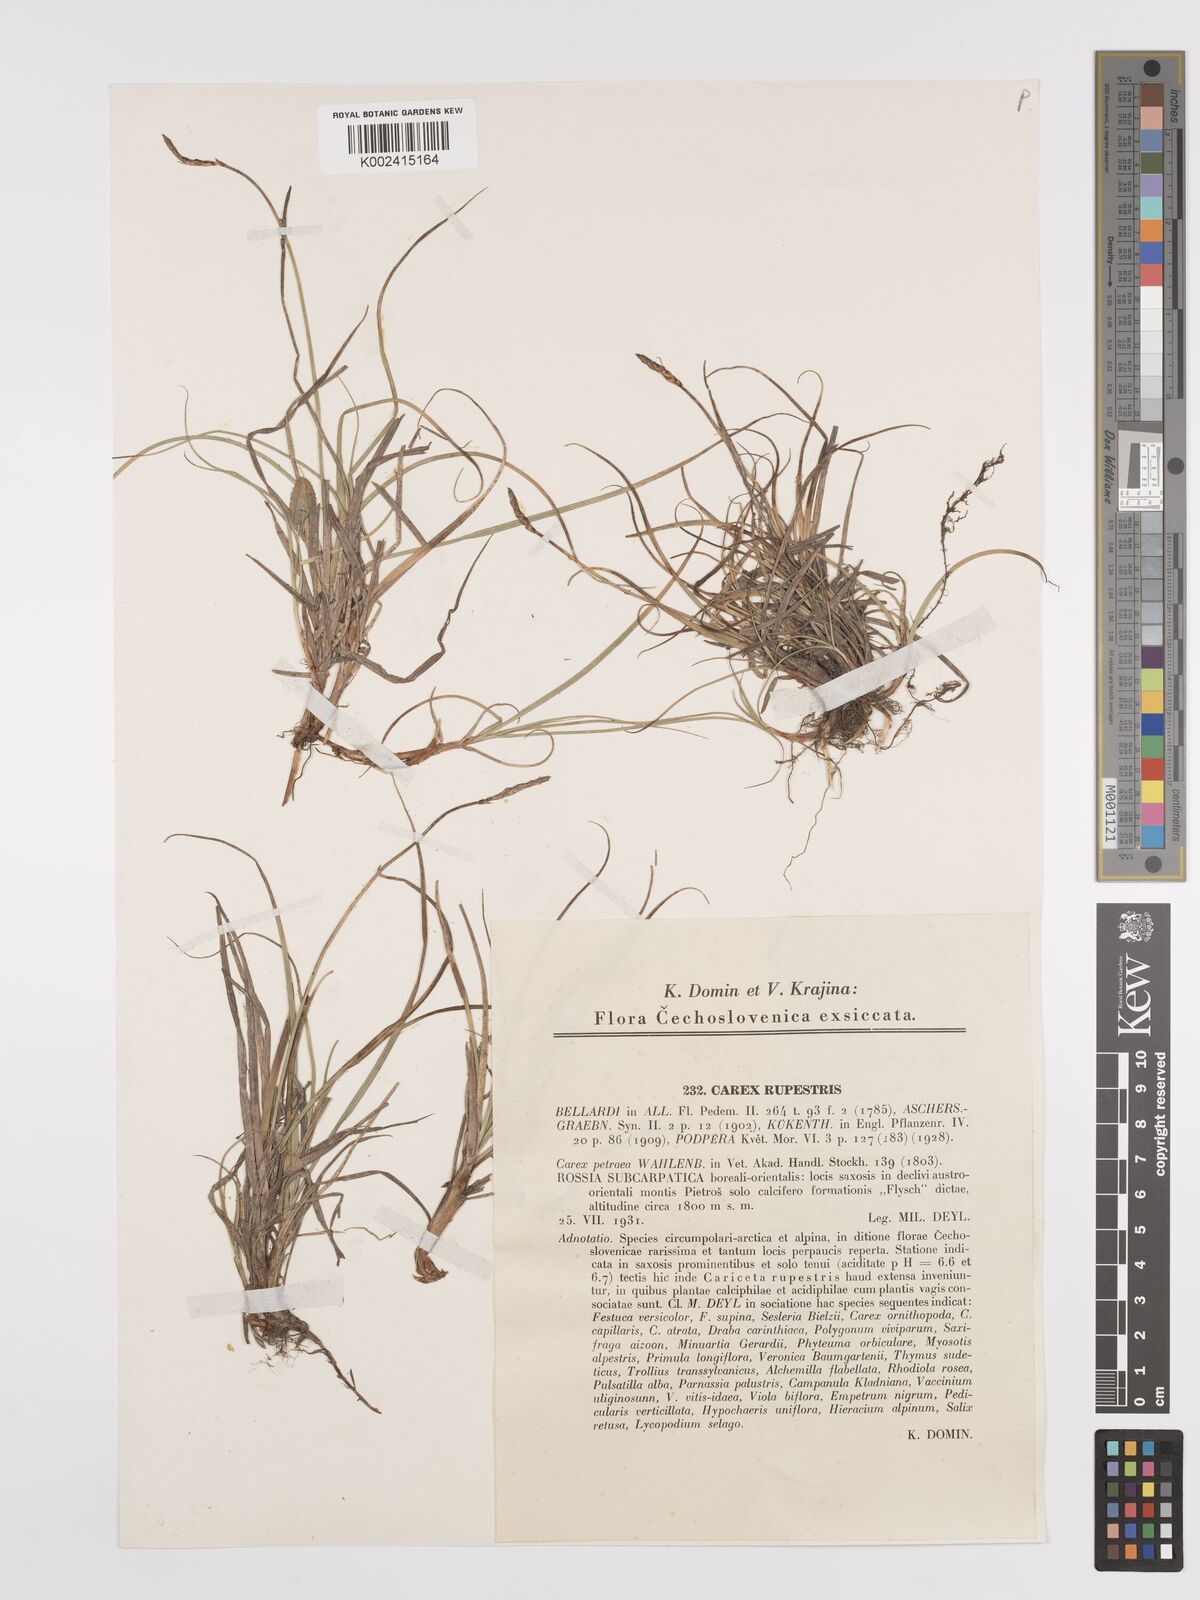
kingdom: Plantae
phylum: Tracheophyta
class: Liliopsida
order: Poales
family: Cyperaceae
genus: Carex
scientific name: Carex rupestris
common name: Rock sedge
